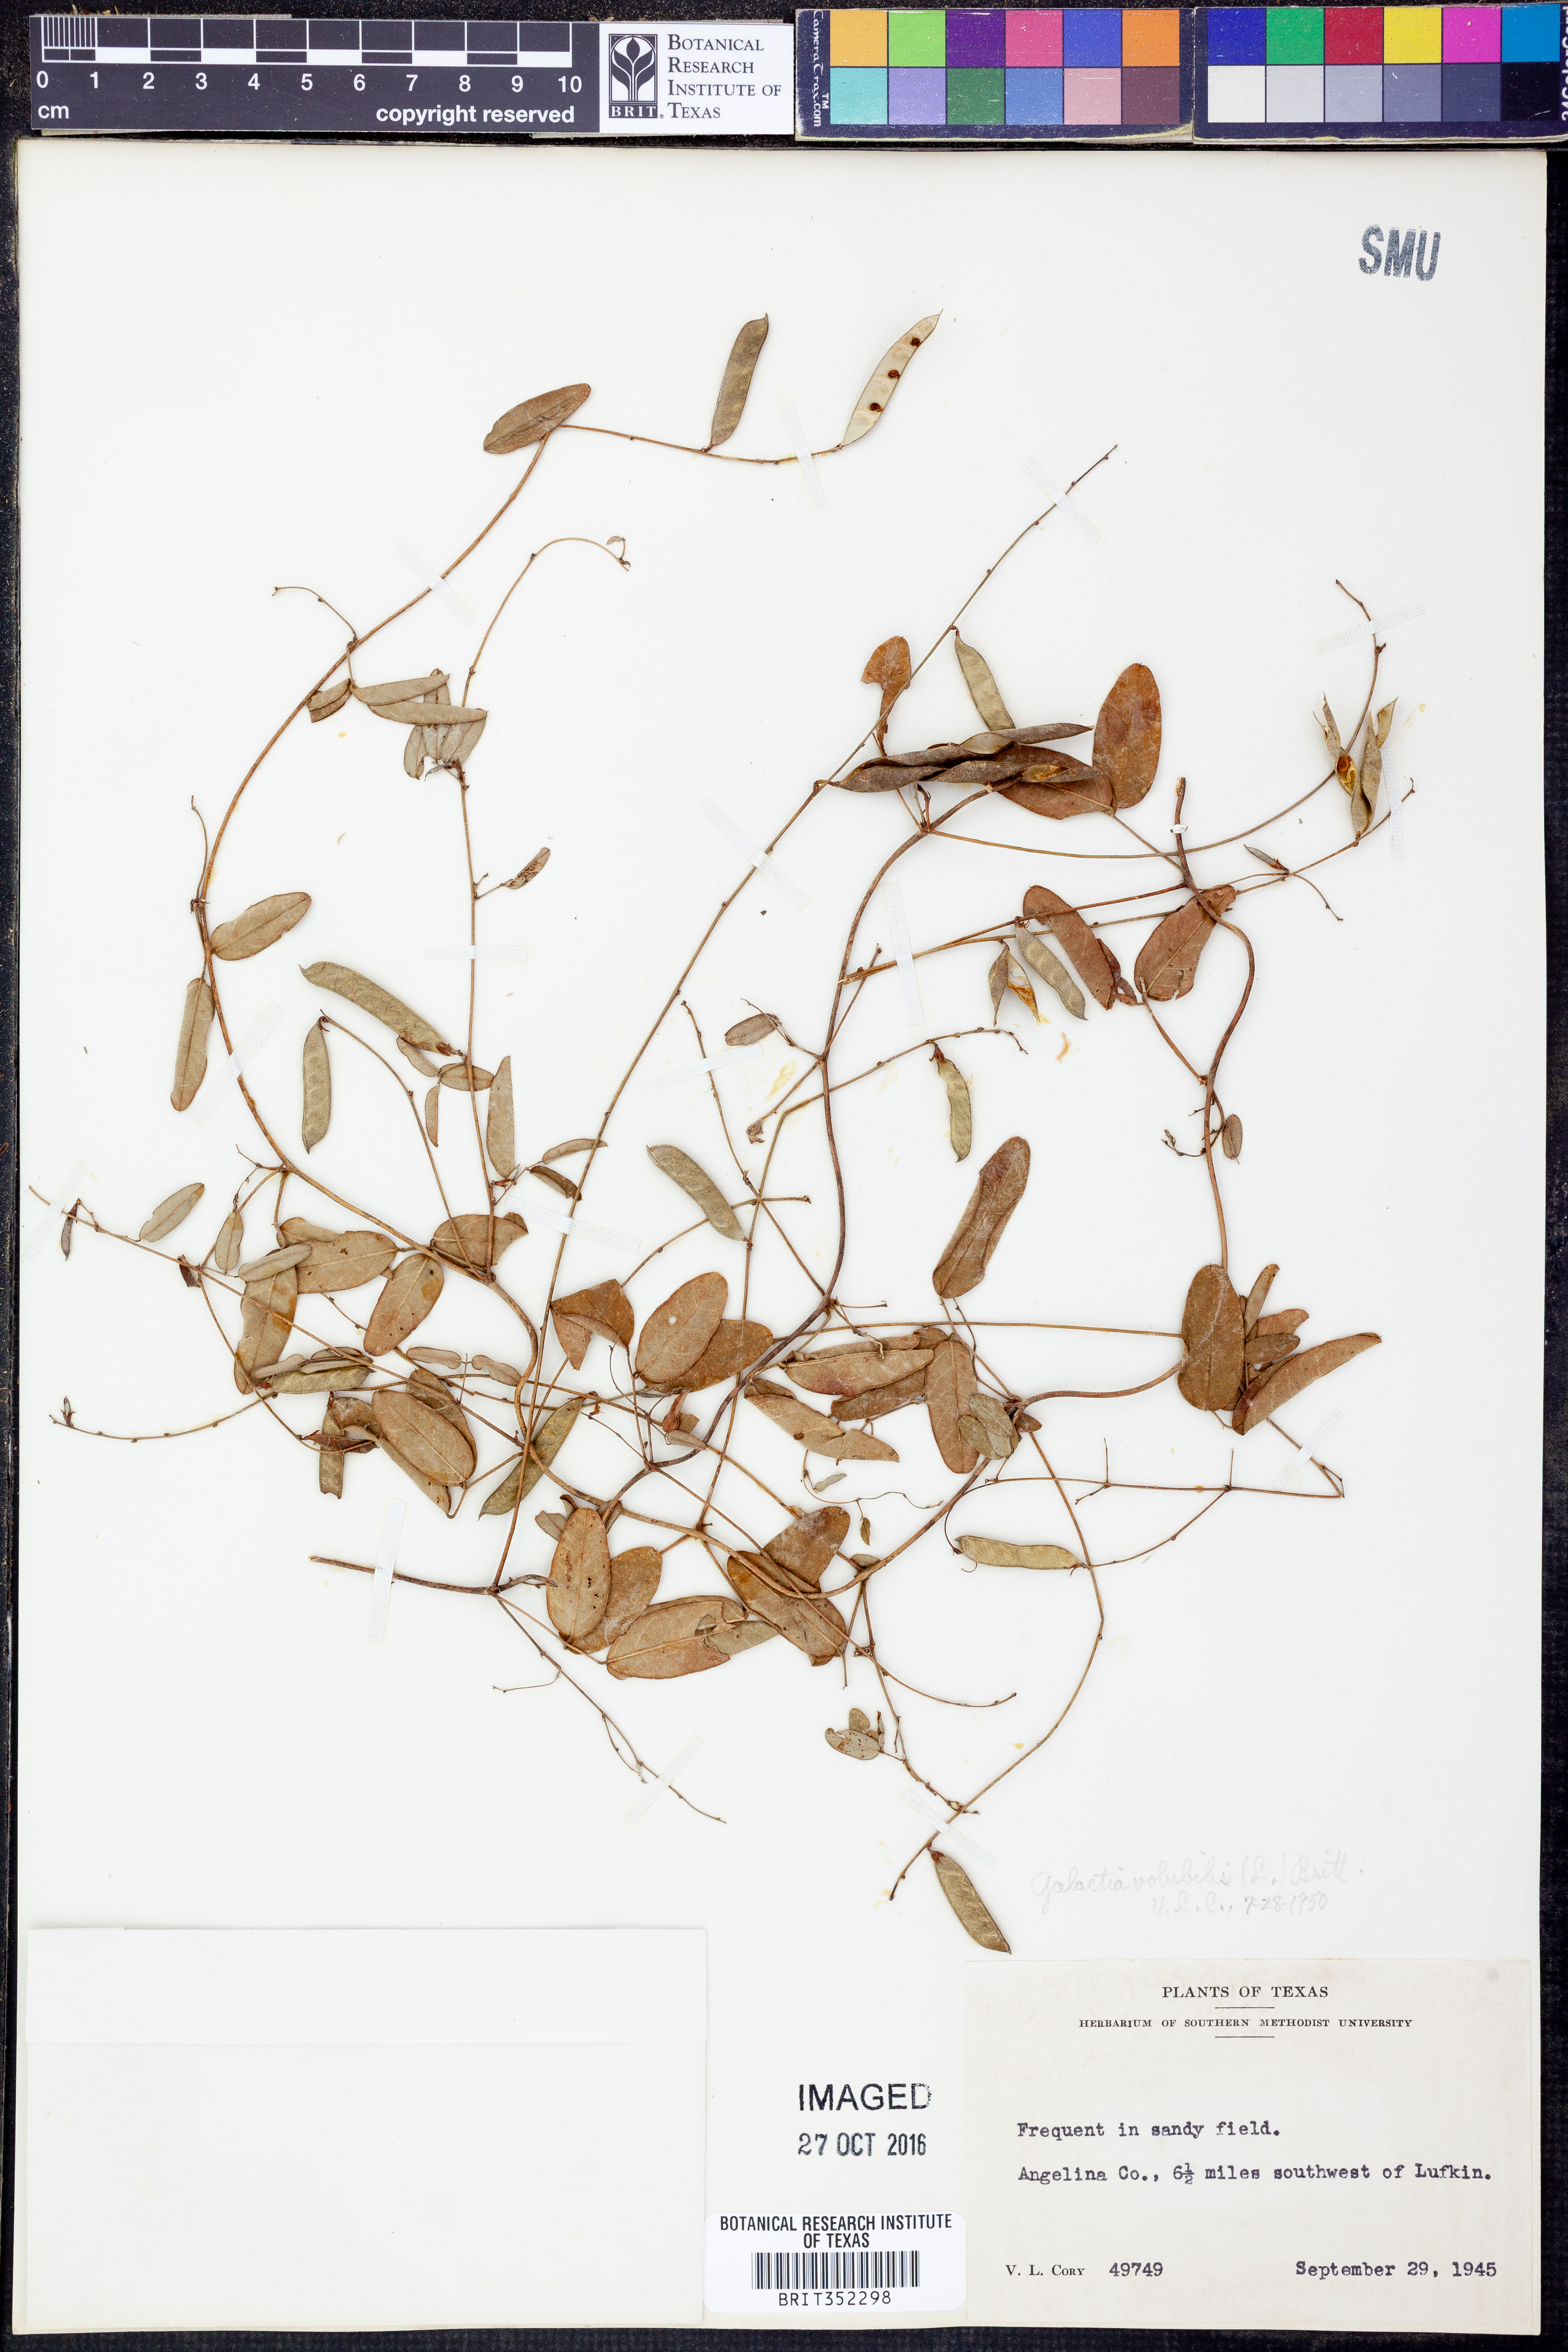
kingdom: Plantae
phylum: Tracheophyta
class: Magnoliopsida
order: Fabales
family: Fabaceae
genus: Galactia
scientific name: Galactia volubilis
